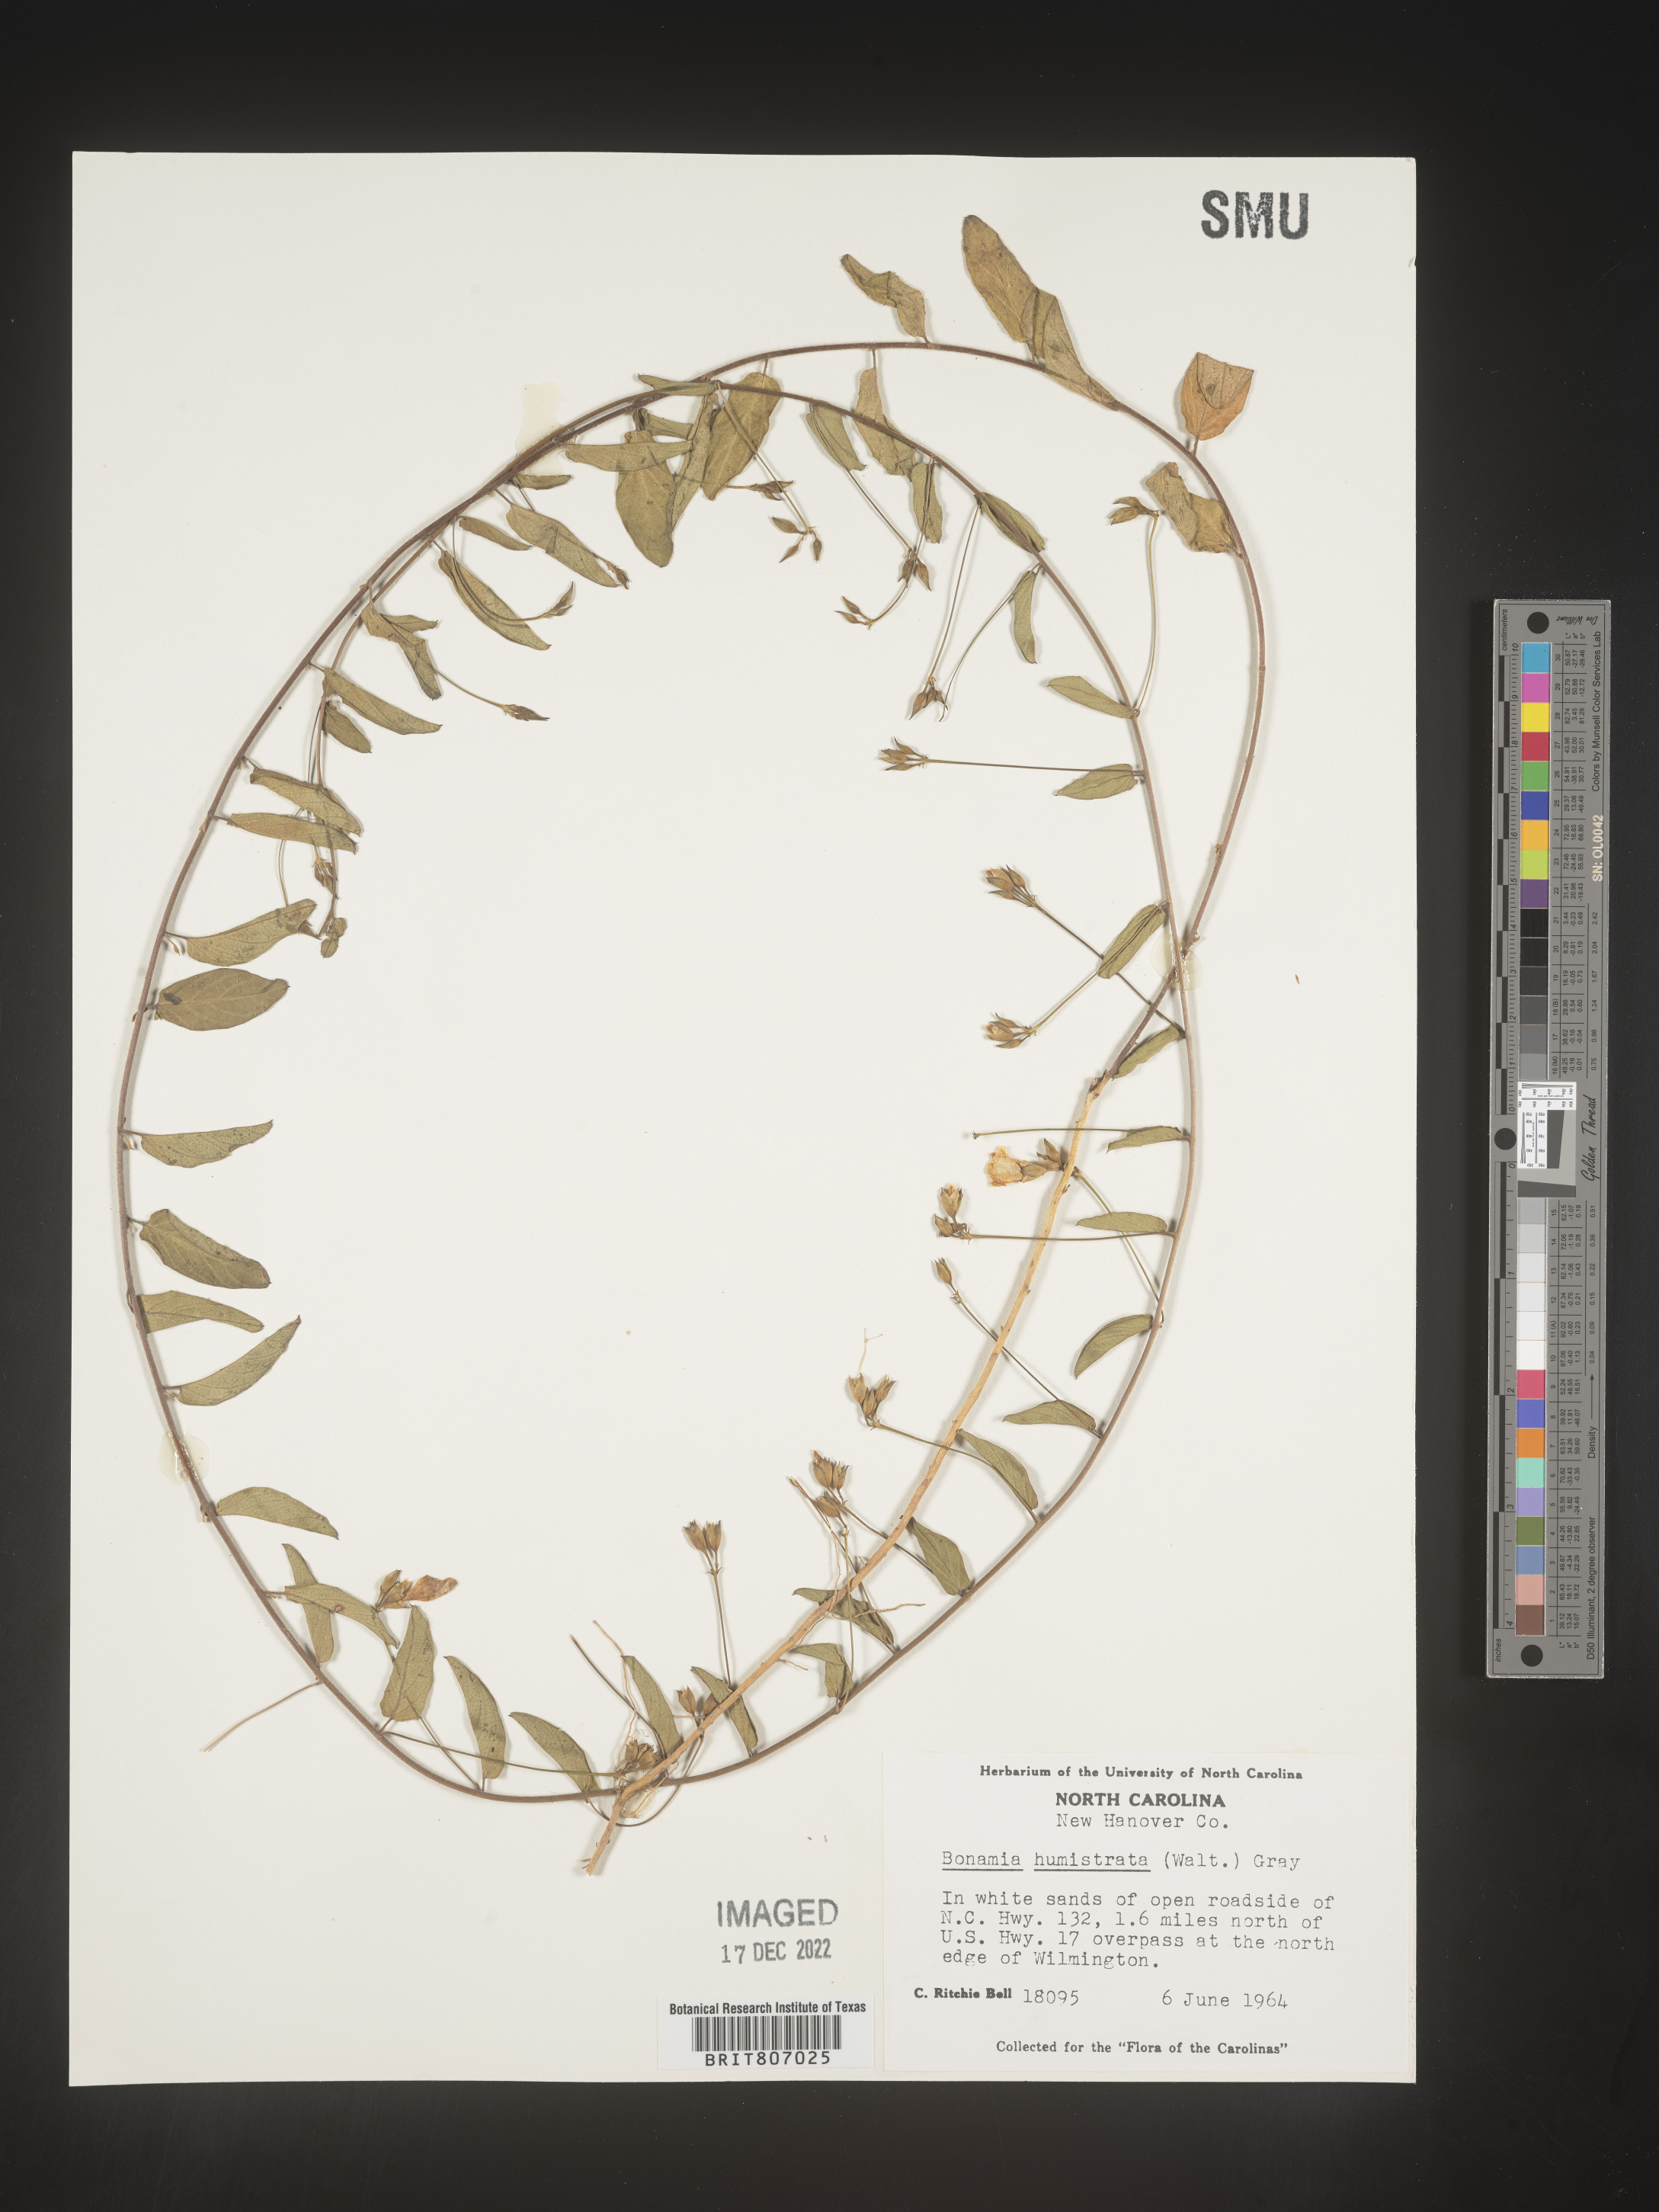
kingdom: Plantae
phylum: Tracheophyta
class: Magnoliopsida
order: Solanales
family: Convolvulaceae
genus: Stylisma
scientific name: Stylisma humistrata
